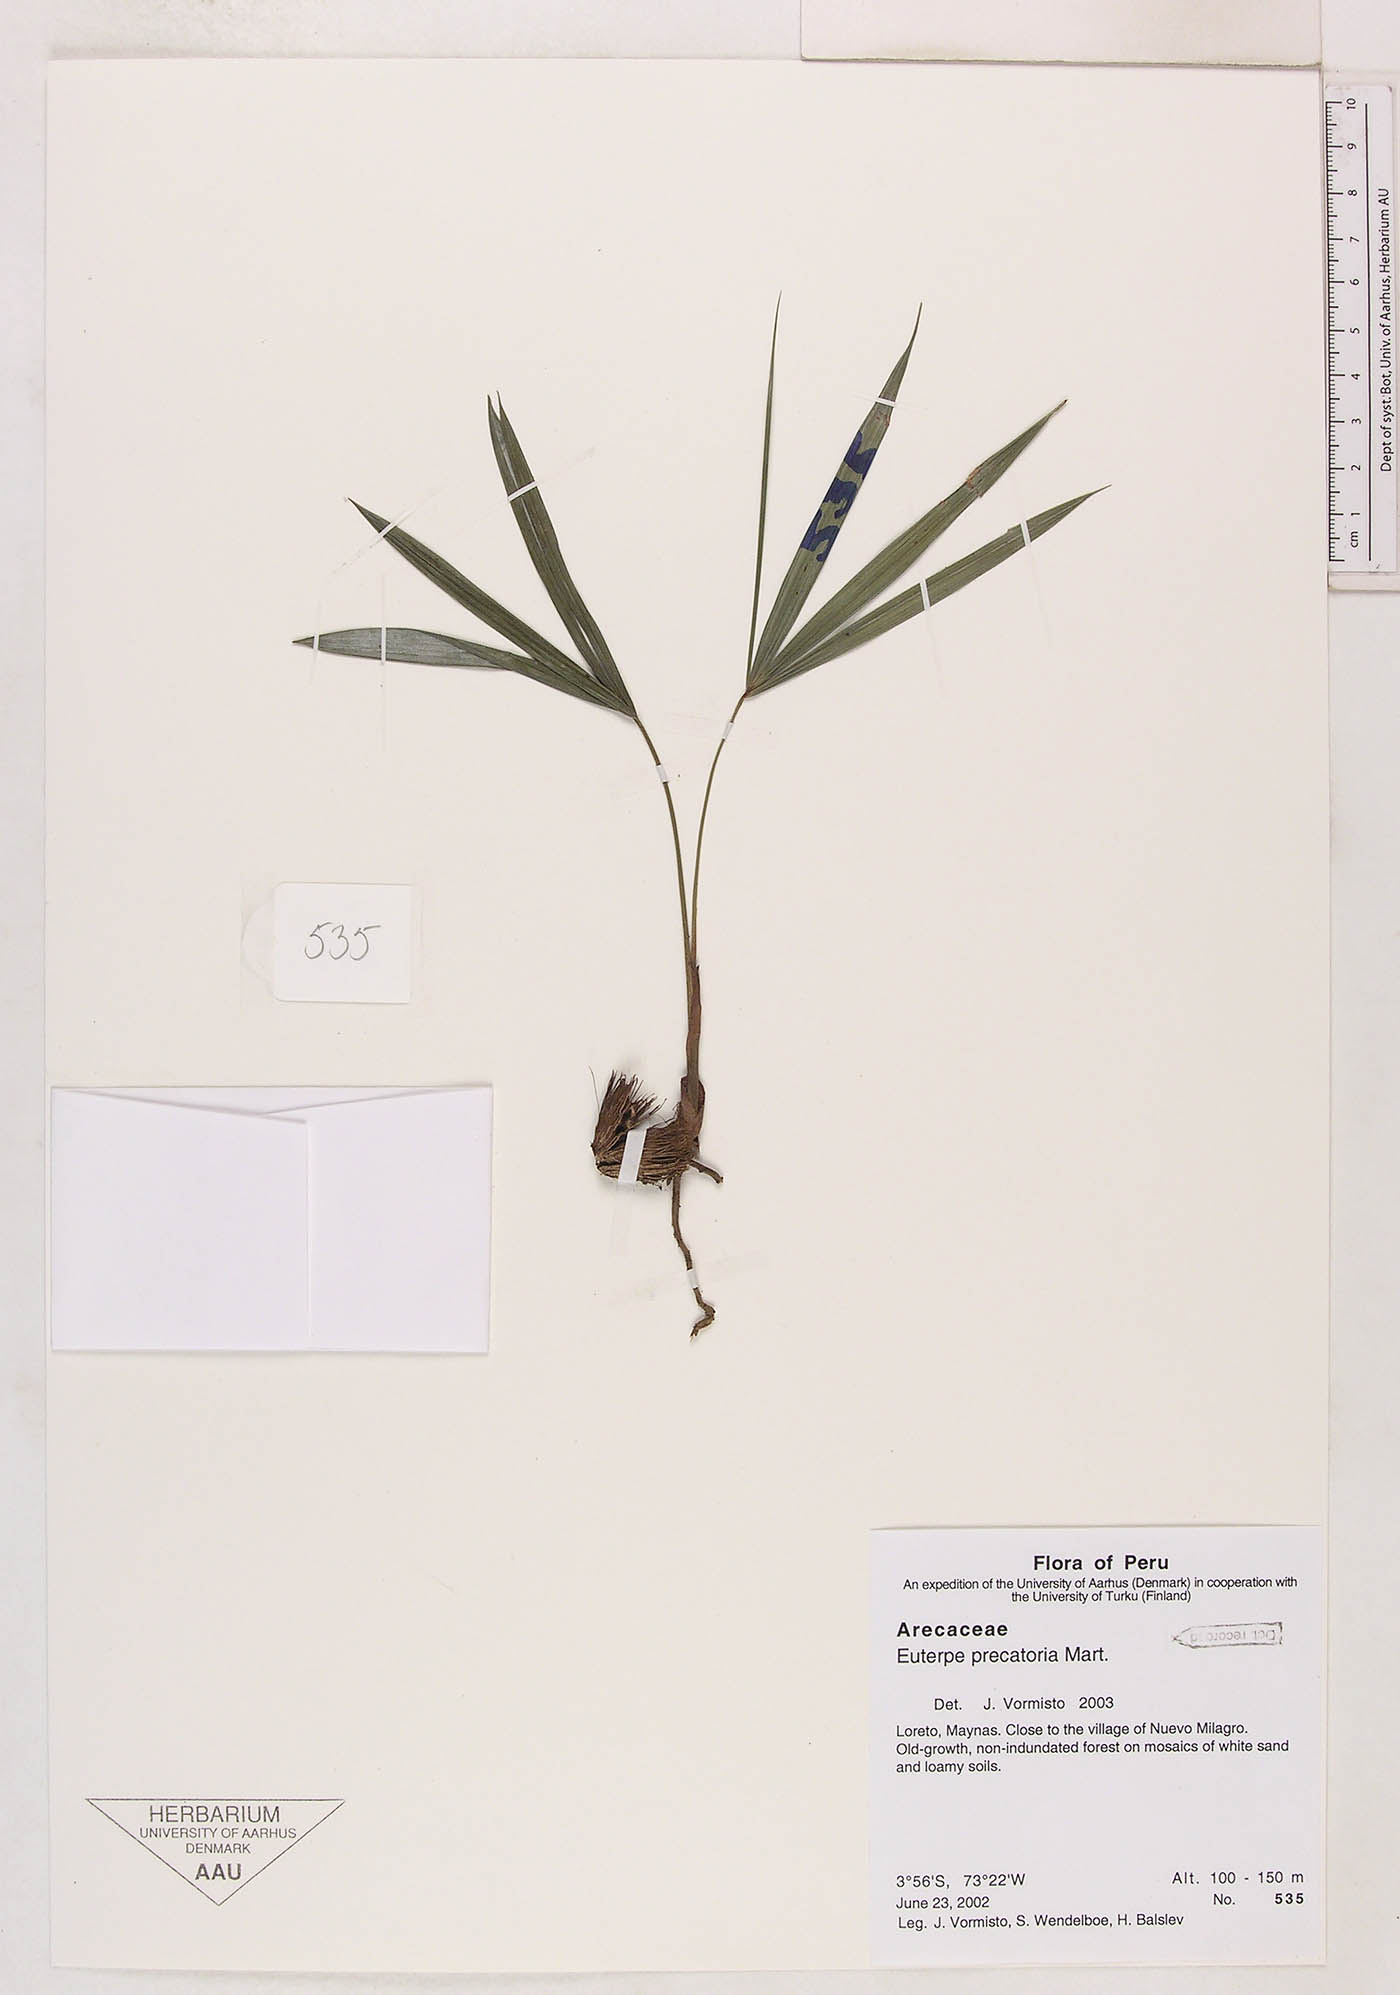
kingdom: Plantae
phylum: Tracheophyta
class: Liliopsida
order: Arecales
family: Arecaceae
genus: Euterpe
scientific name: Euterpe precatoria
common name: Mountain-cabbage
